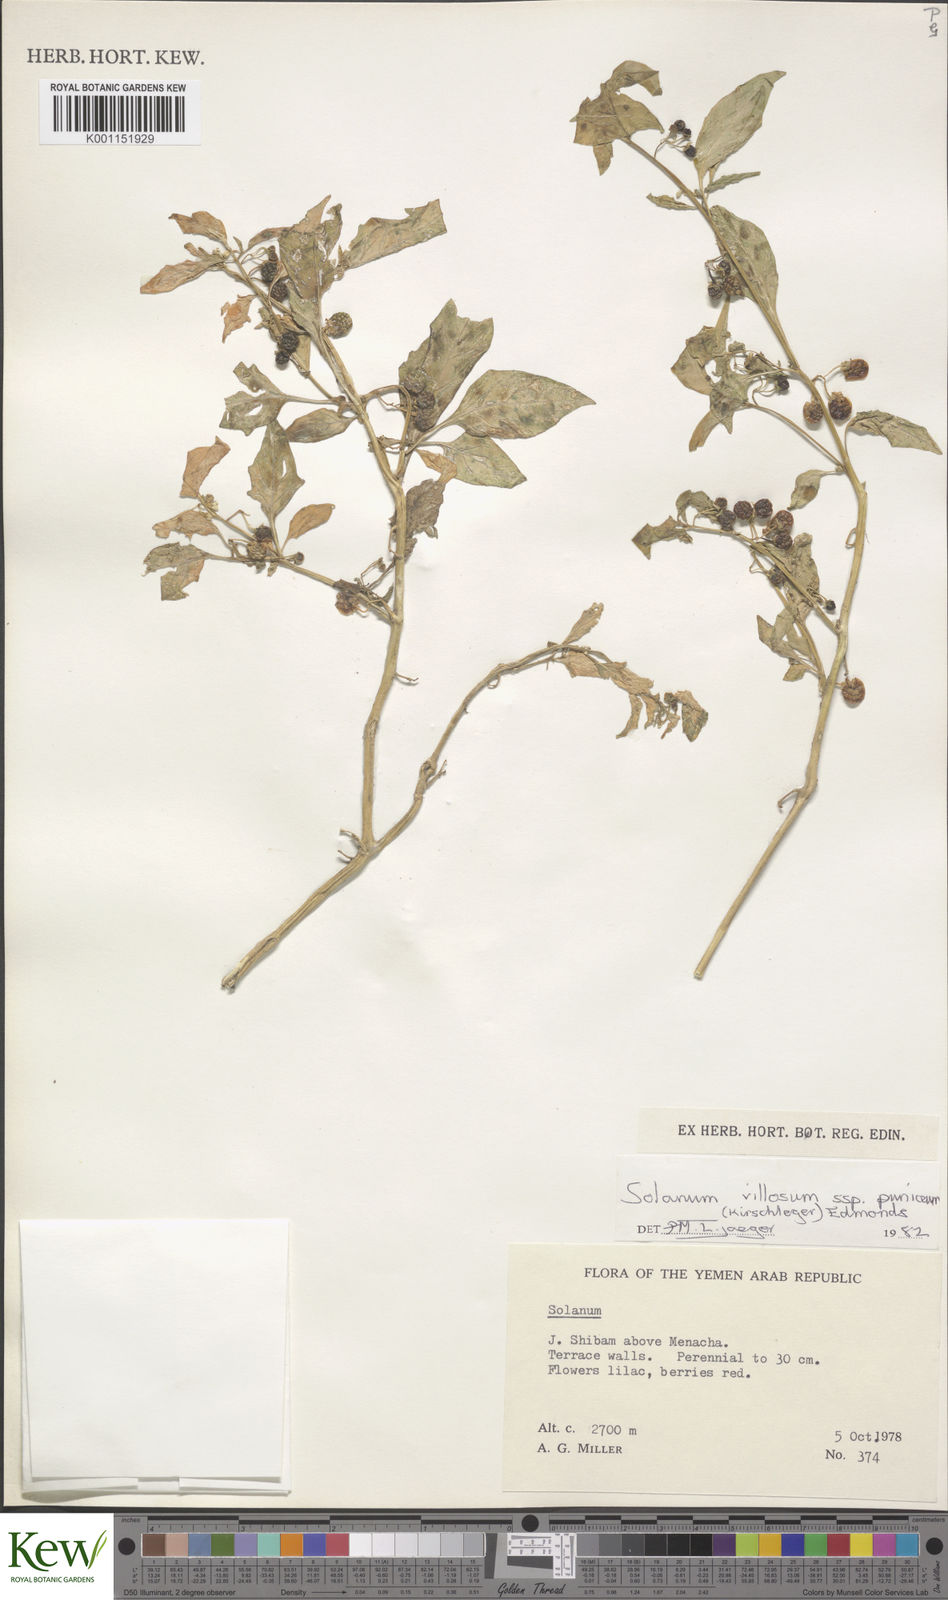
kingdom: Plantae
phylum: Tracheophyta
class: Magnoliopsida
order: Solanales
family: Solanaceae
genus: Solanum
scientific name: Solanum villosum
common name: Red nightshade
